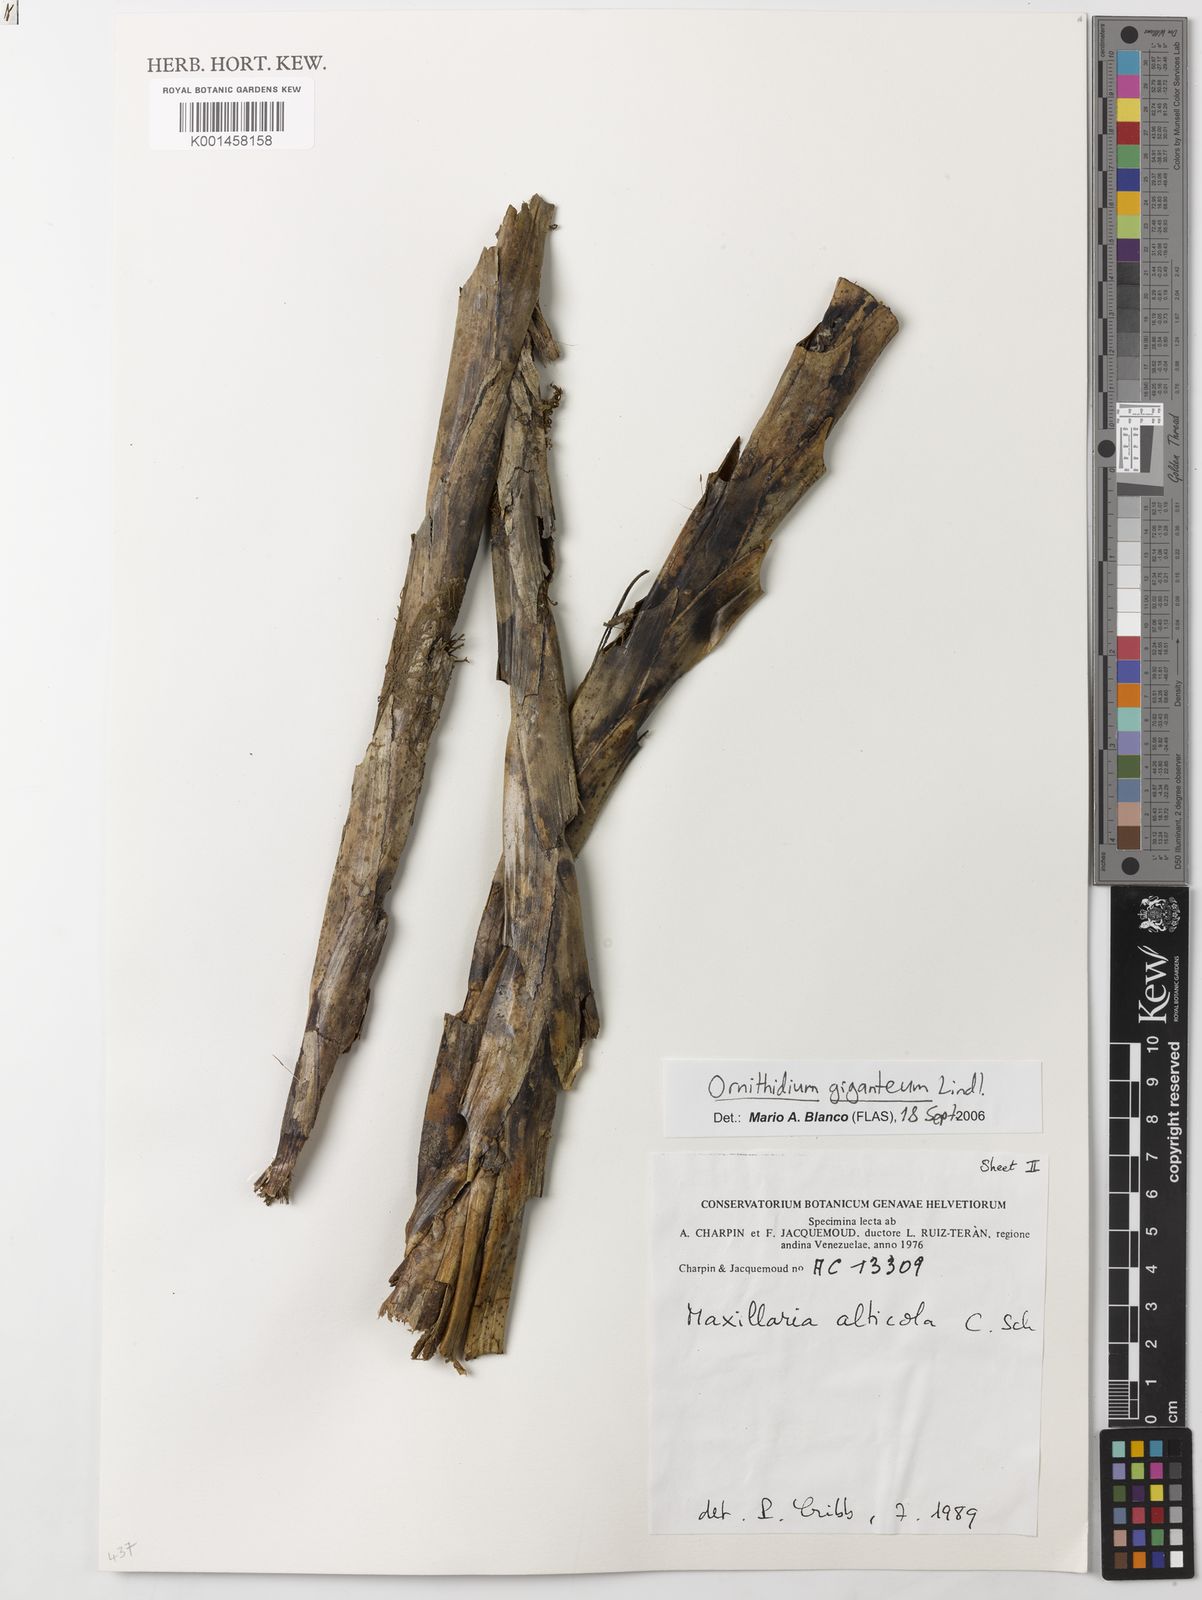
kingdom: Plantae
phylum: Tracheophyta
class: Liliopsida
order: Asparagales
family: Orchidaceae
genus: Maxillaria
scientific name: Maxillaria aurea
